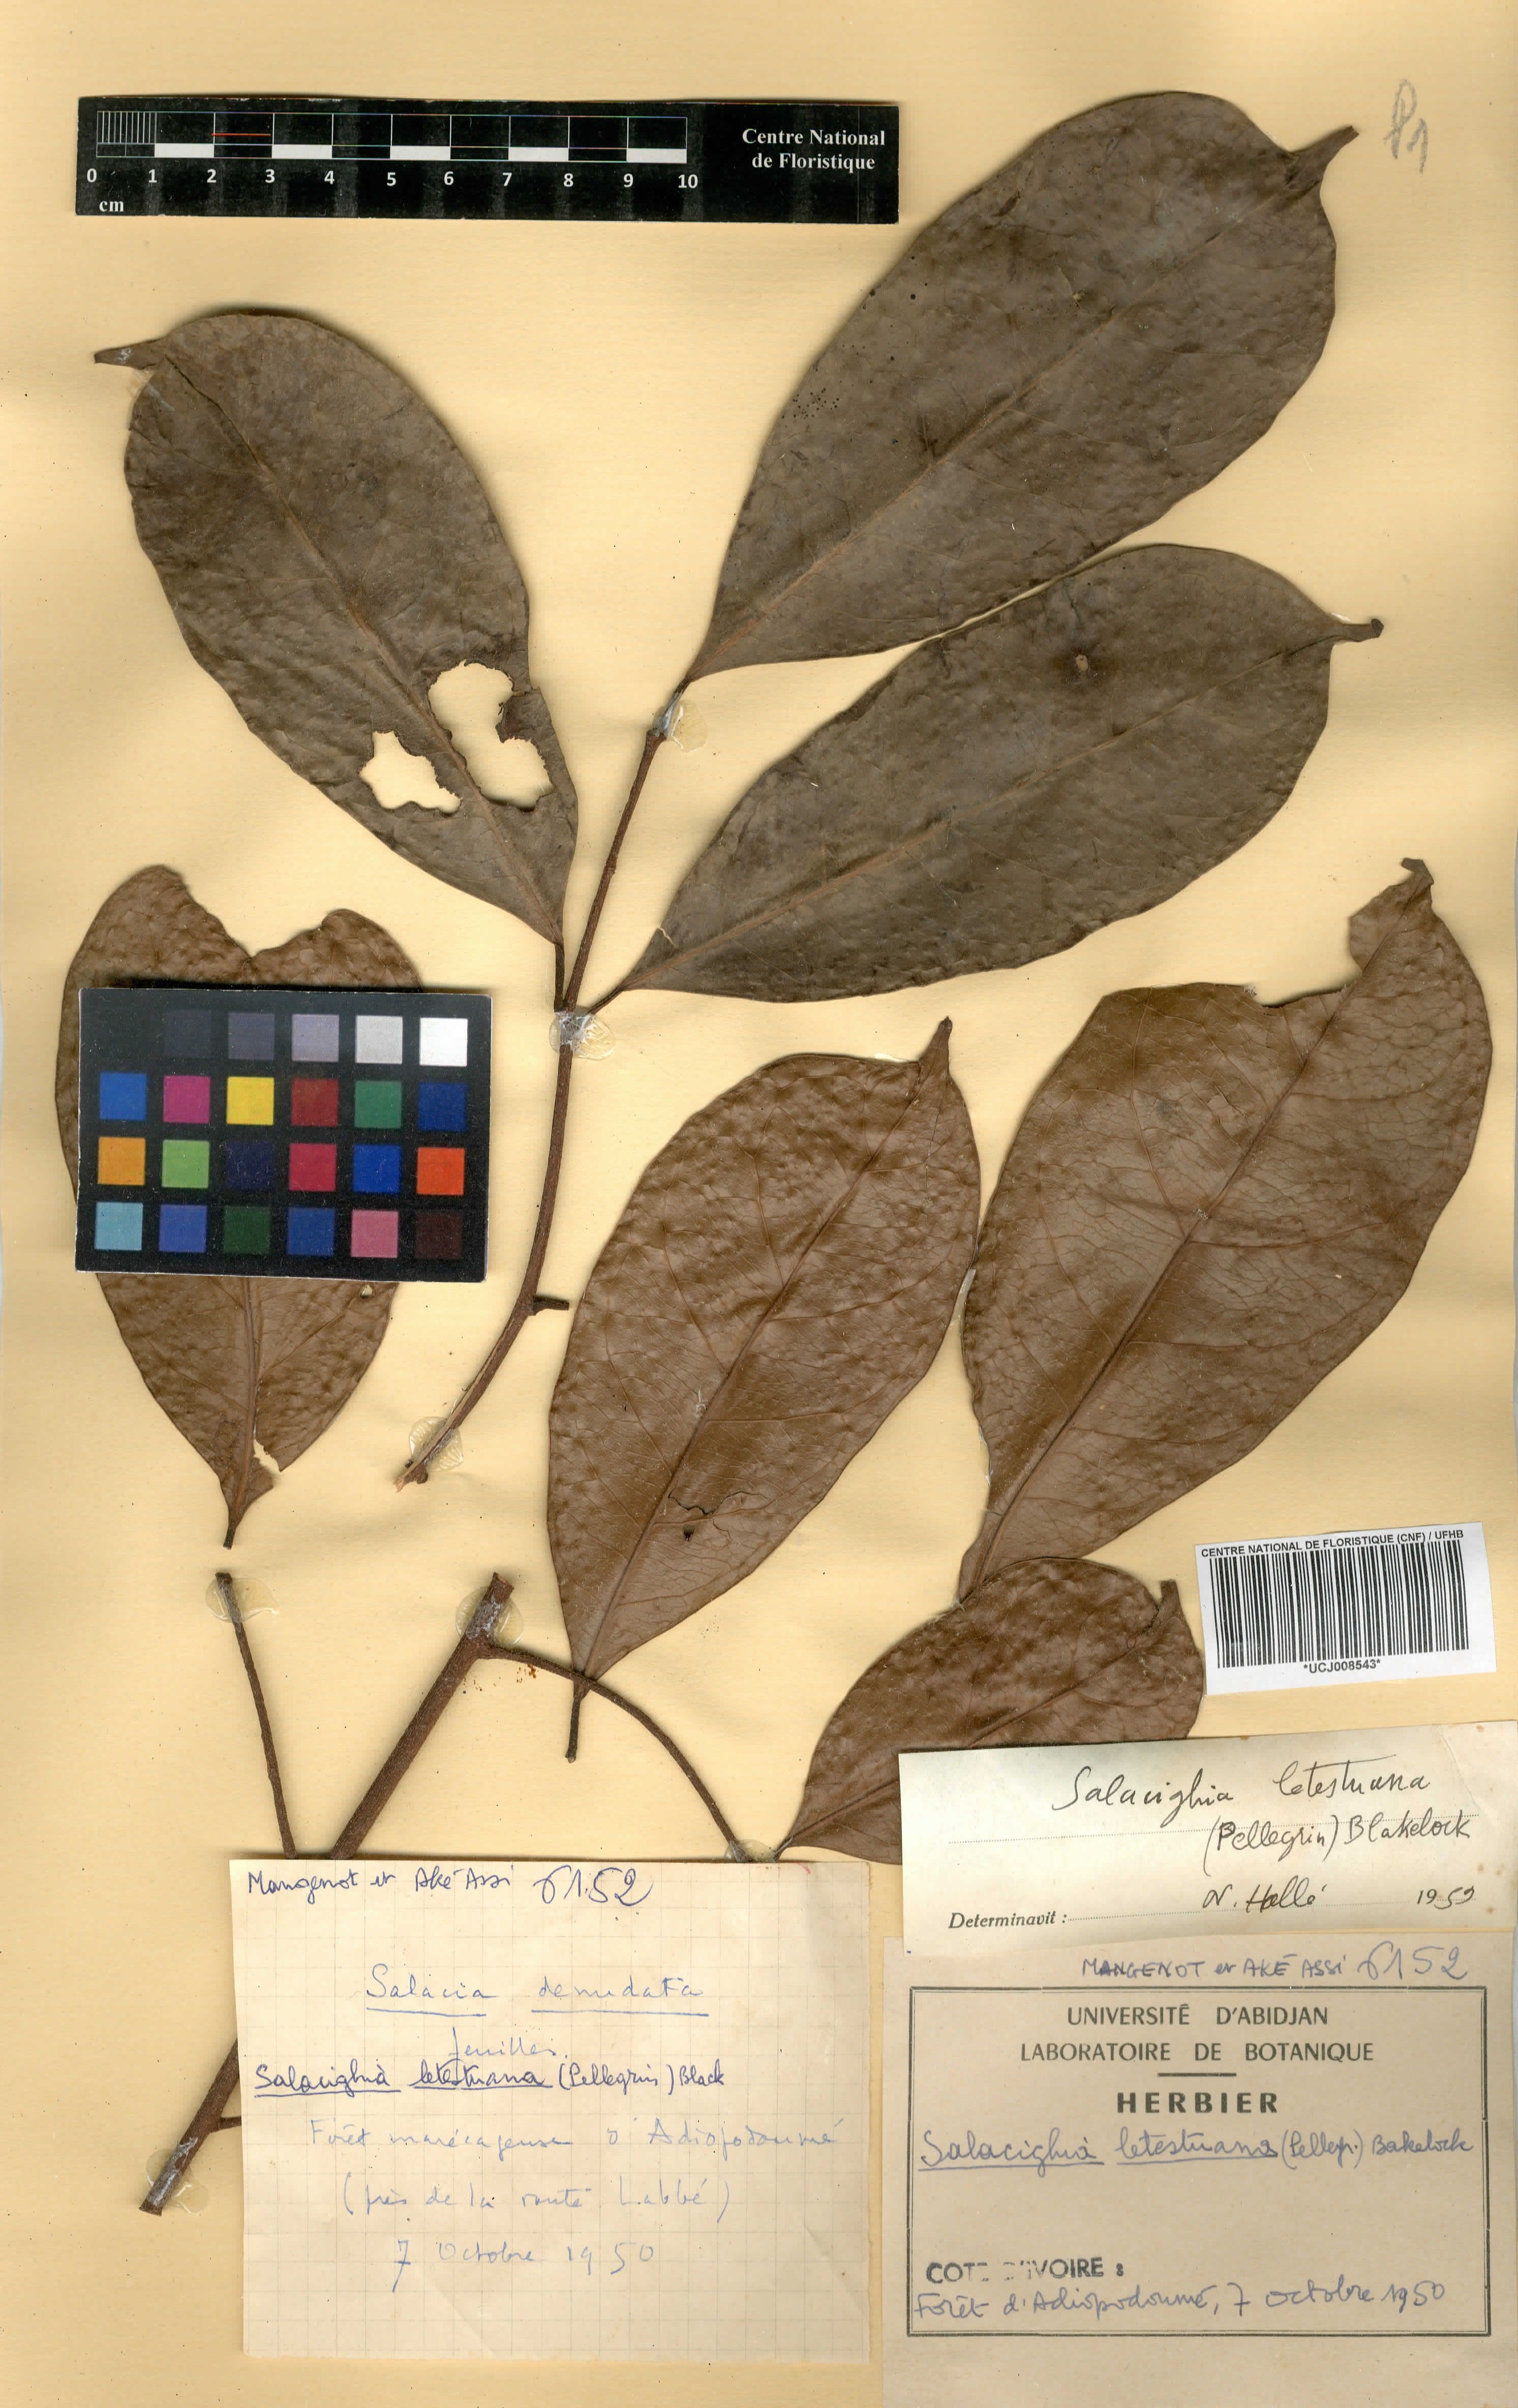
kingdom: Plantae
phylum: Tracheophyta
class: Magnoliopsida
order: Celastrales
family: Celastraceae
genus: Salacighia
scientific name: Salacighia letestuana
